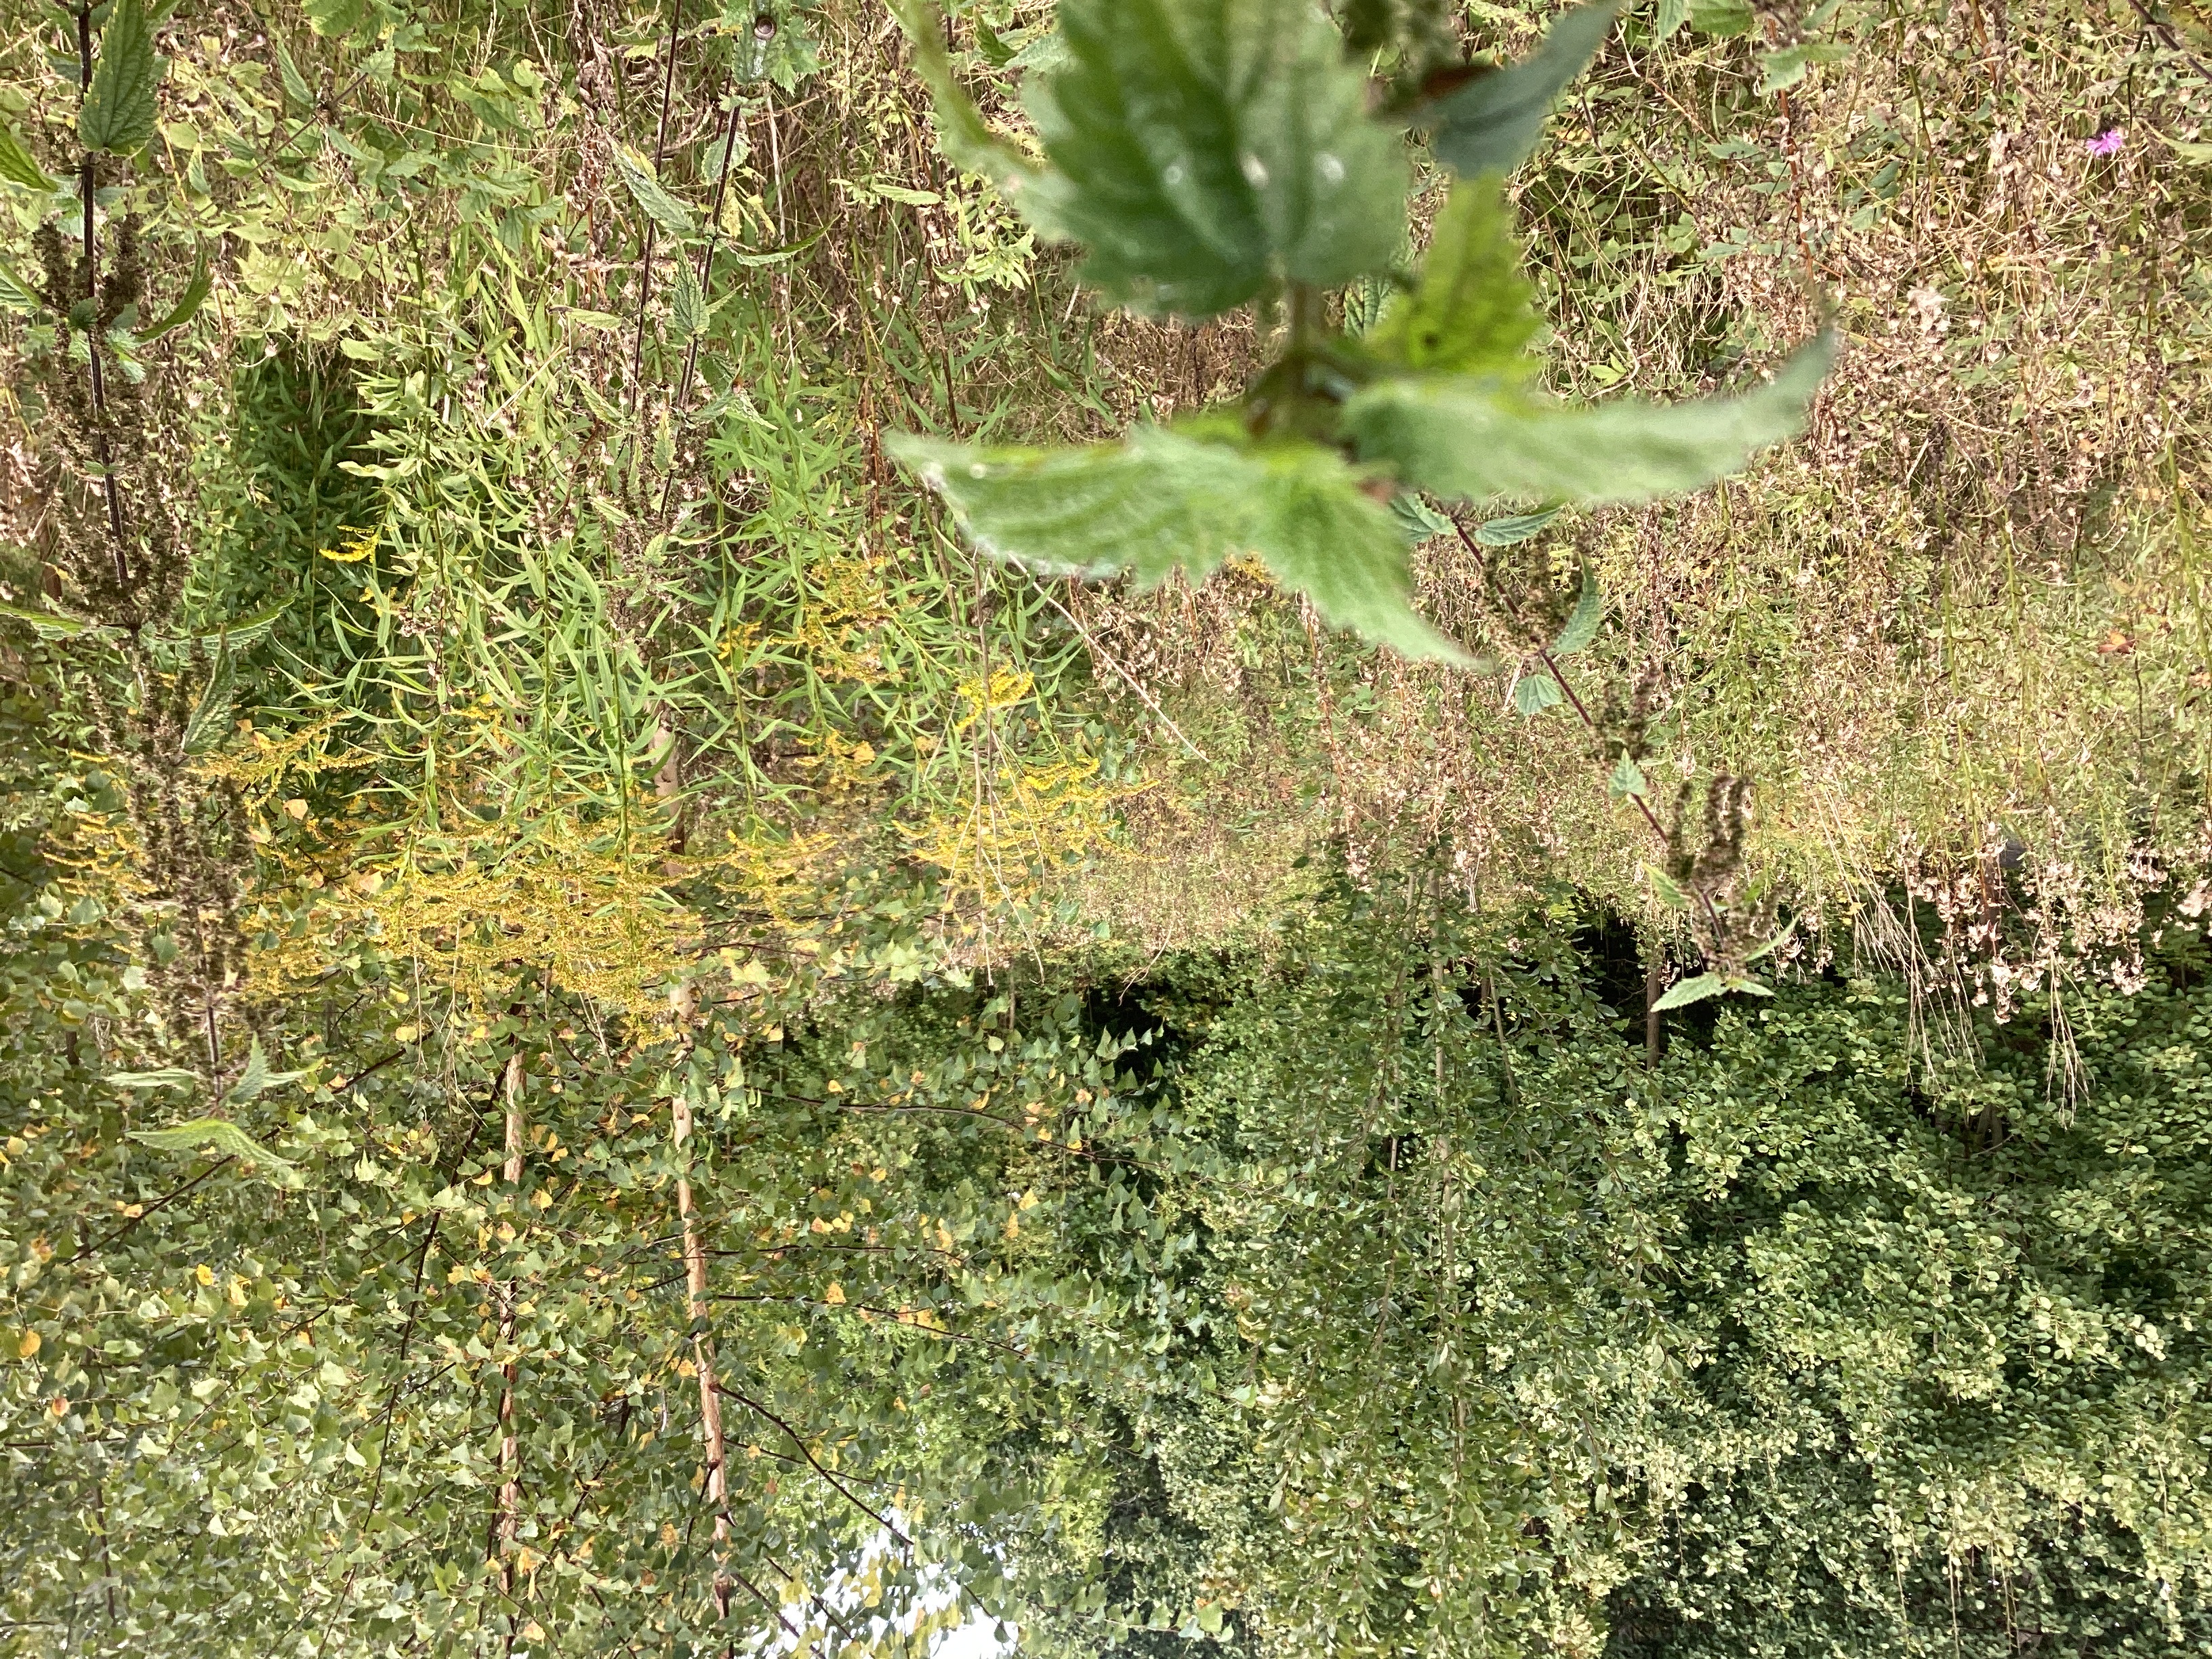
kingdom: Plantae
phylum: Tracheophyta
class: Magnoliopsida
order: Asterales
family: Asteraceae
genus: Solidago
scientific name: Solidago canadensis
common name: kanadagullris
